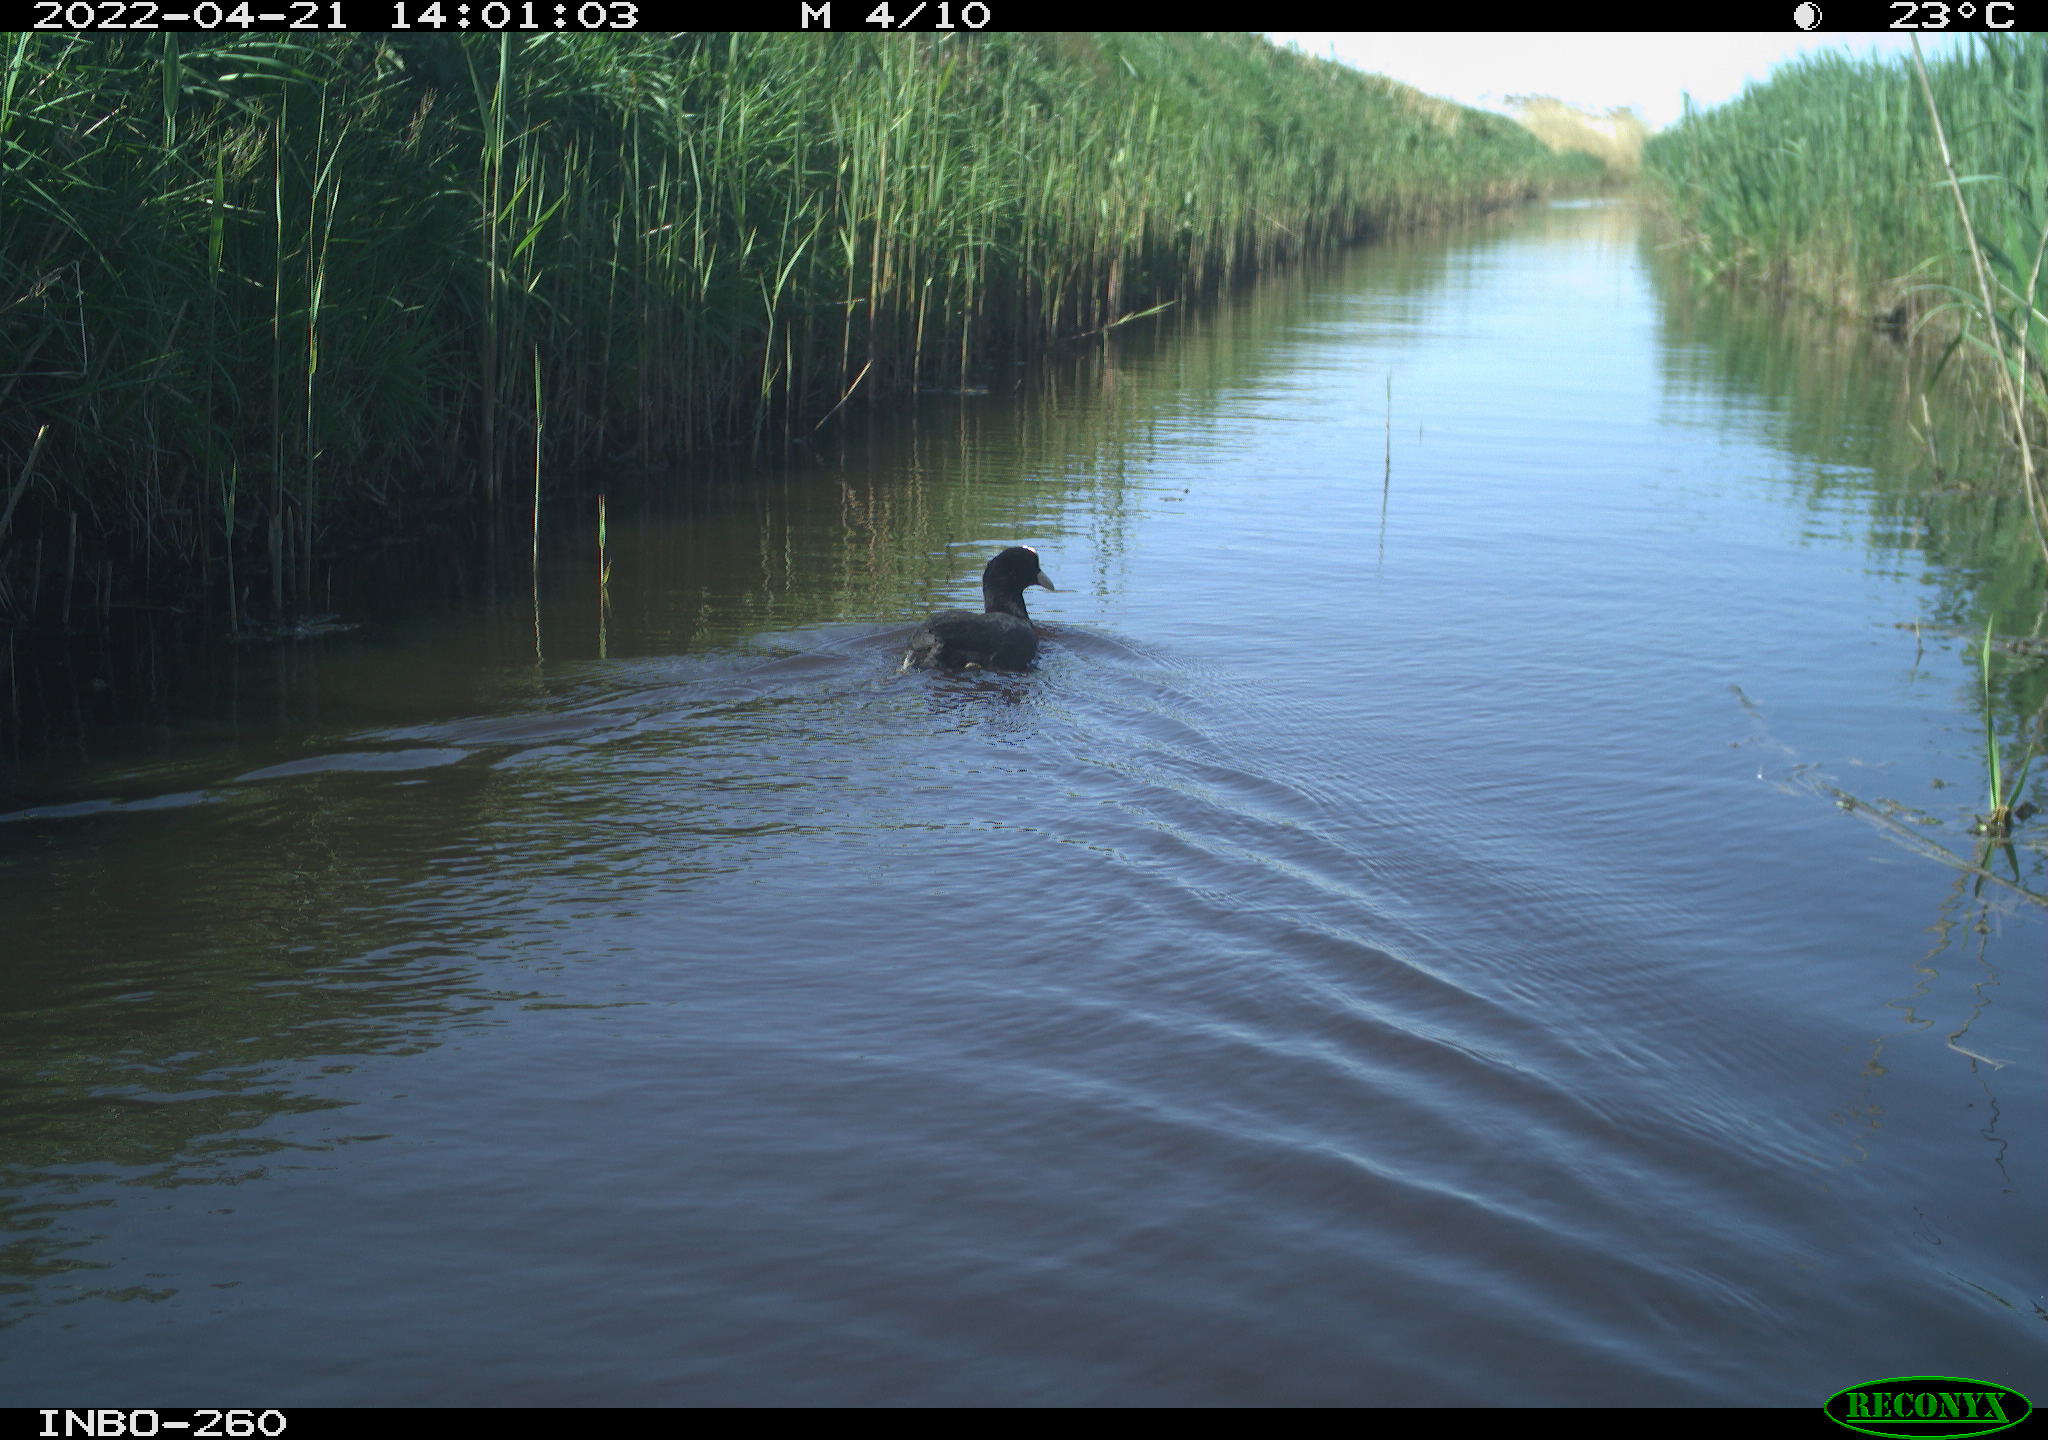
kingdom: Animalia
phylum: Chordata
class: Aves
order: Gruiformes
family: Rallidae
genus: Fulica
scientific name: Fulica atra
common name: Eurasian coot
